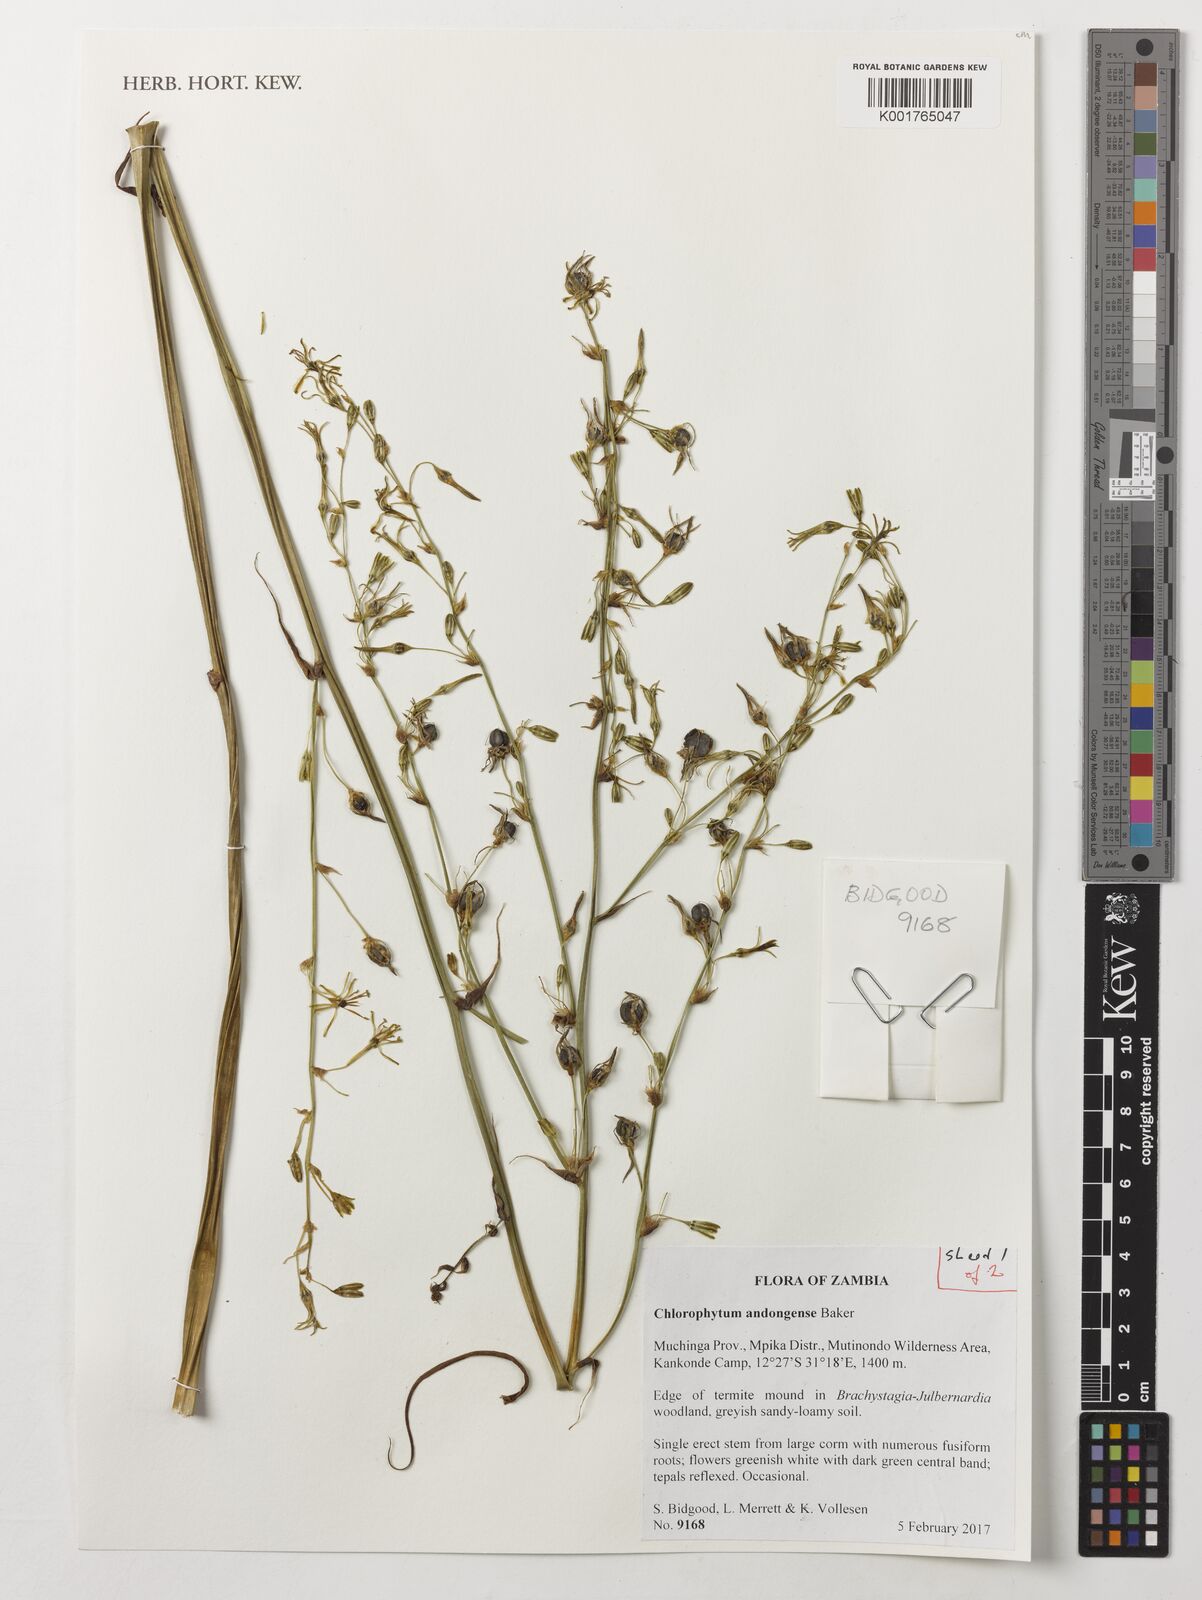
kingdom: Plantae
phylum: Tracheophyta
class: Liliopsida
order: Asparagales
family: Asparagaceae
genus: Chlorophytum
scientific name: Chlorophytum andongense
